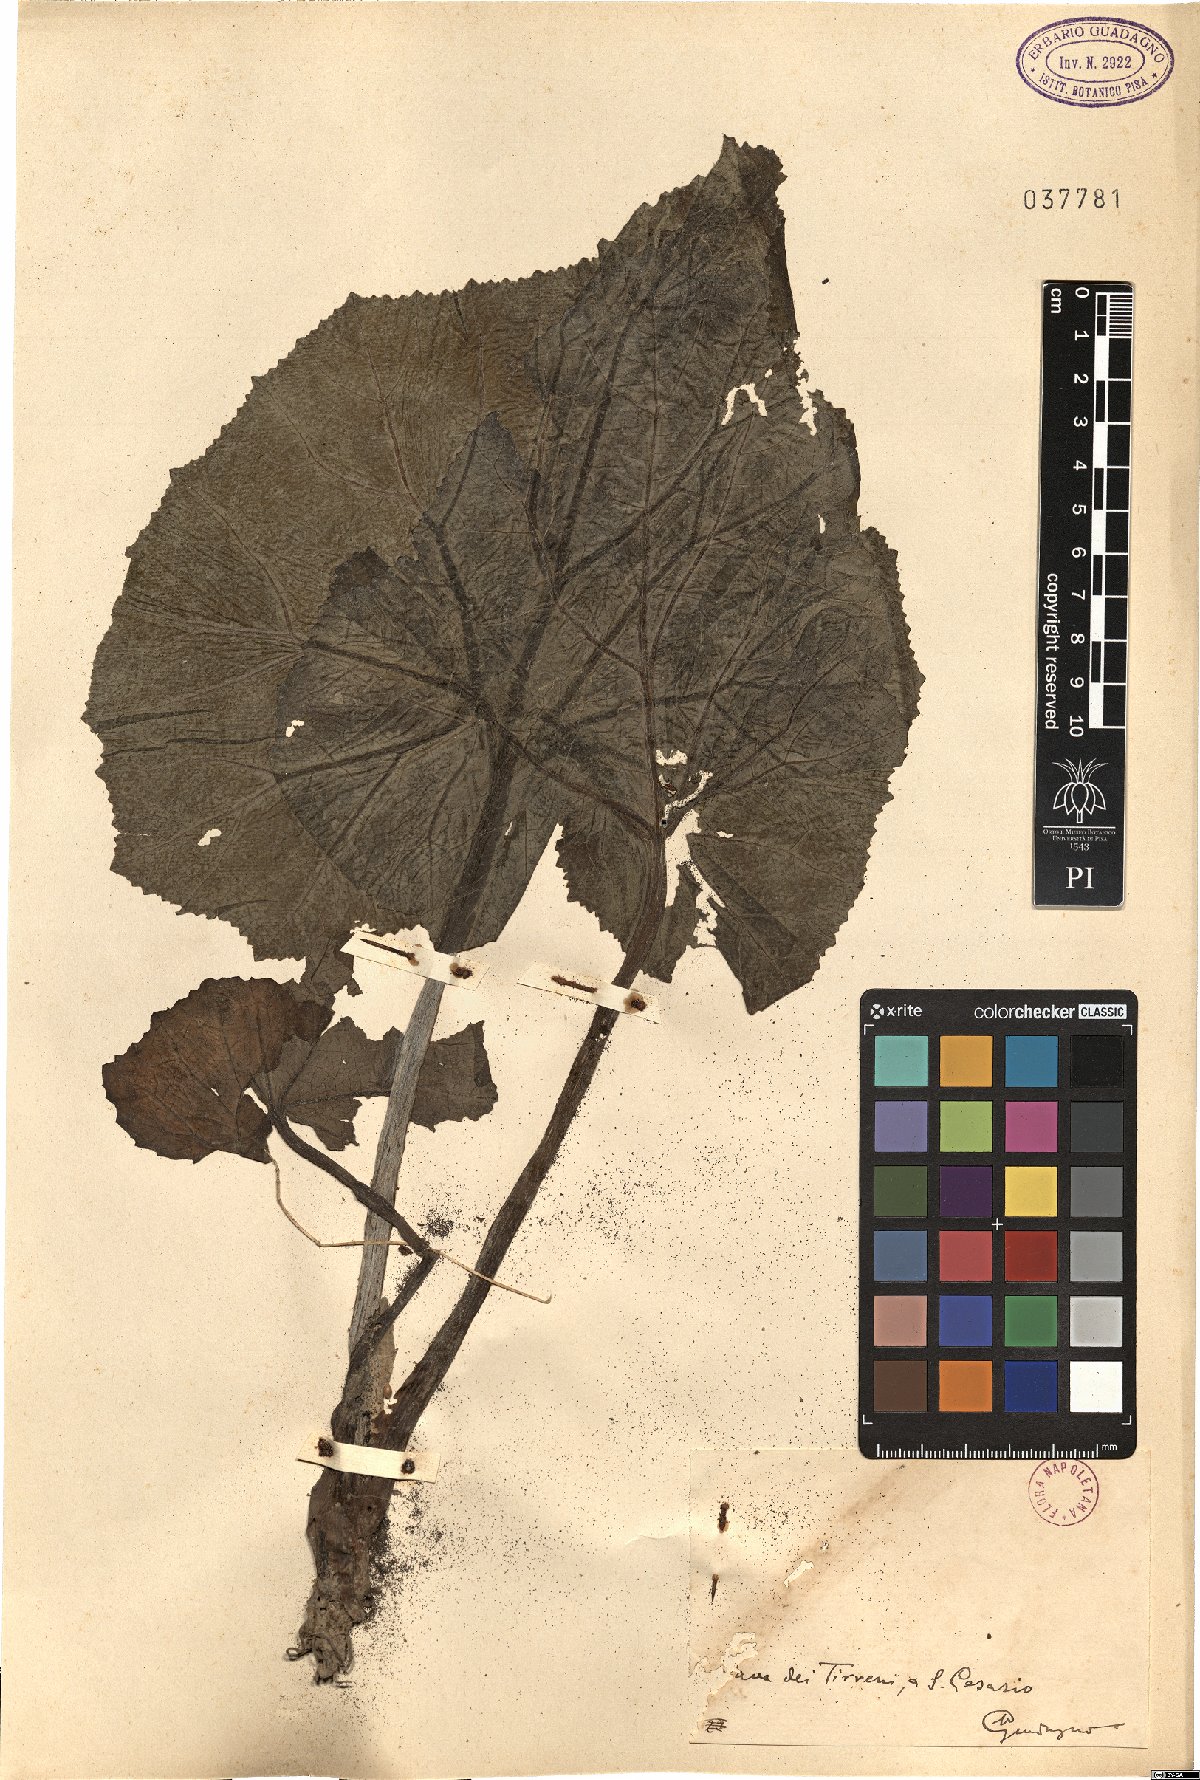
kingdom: Plantae
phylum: Tracheophyta
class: Magnoliopsida
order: Asterales
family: Asteraceae
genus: Petasites
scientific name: Petasites
